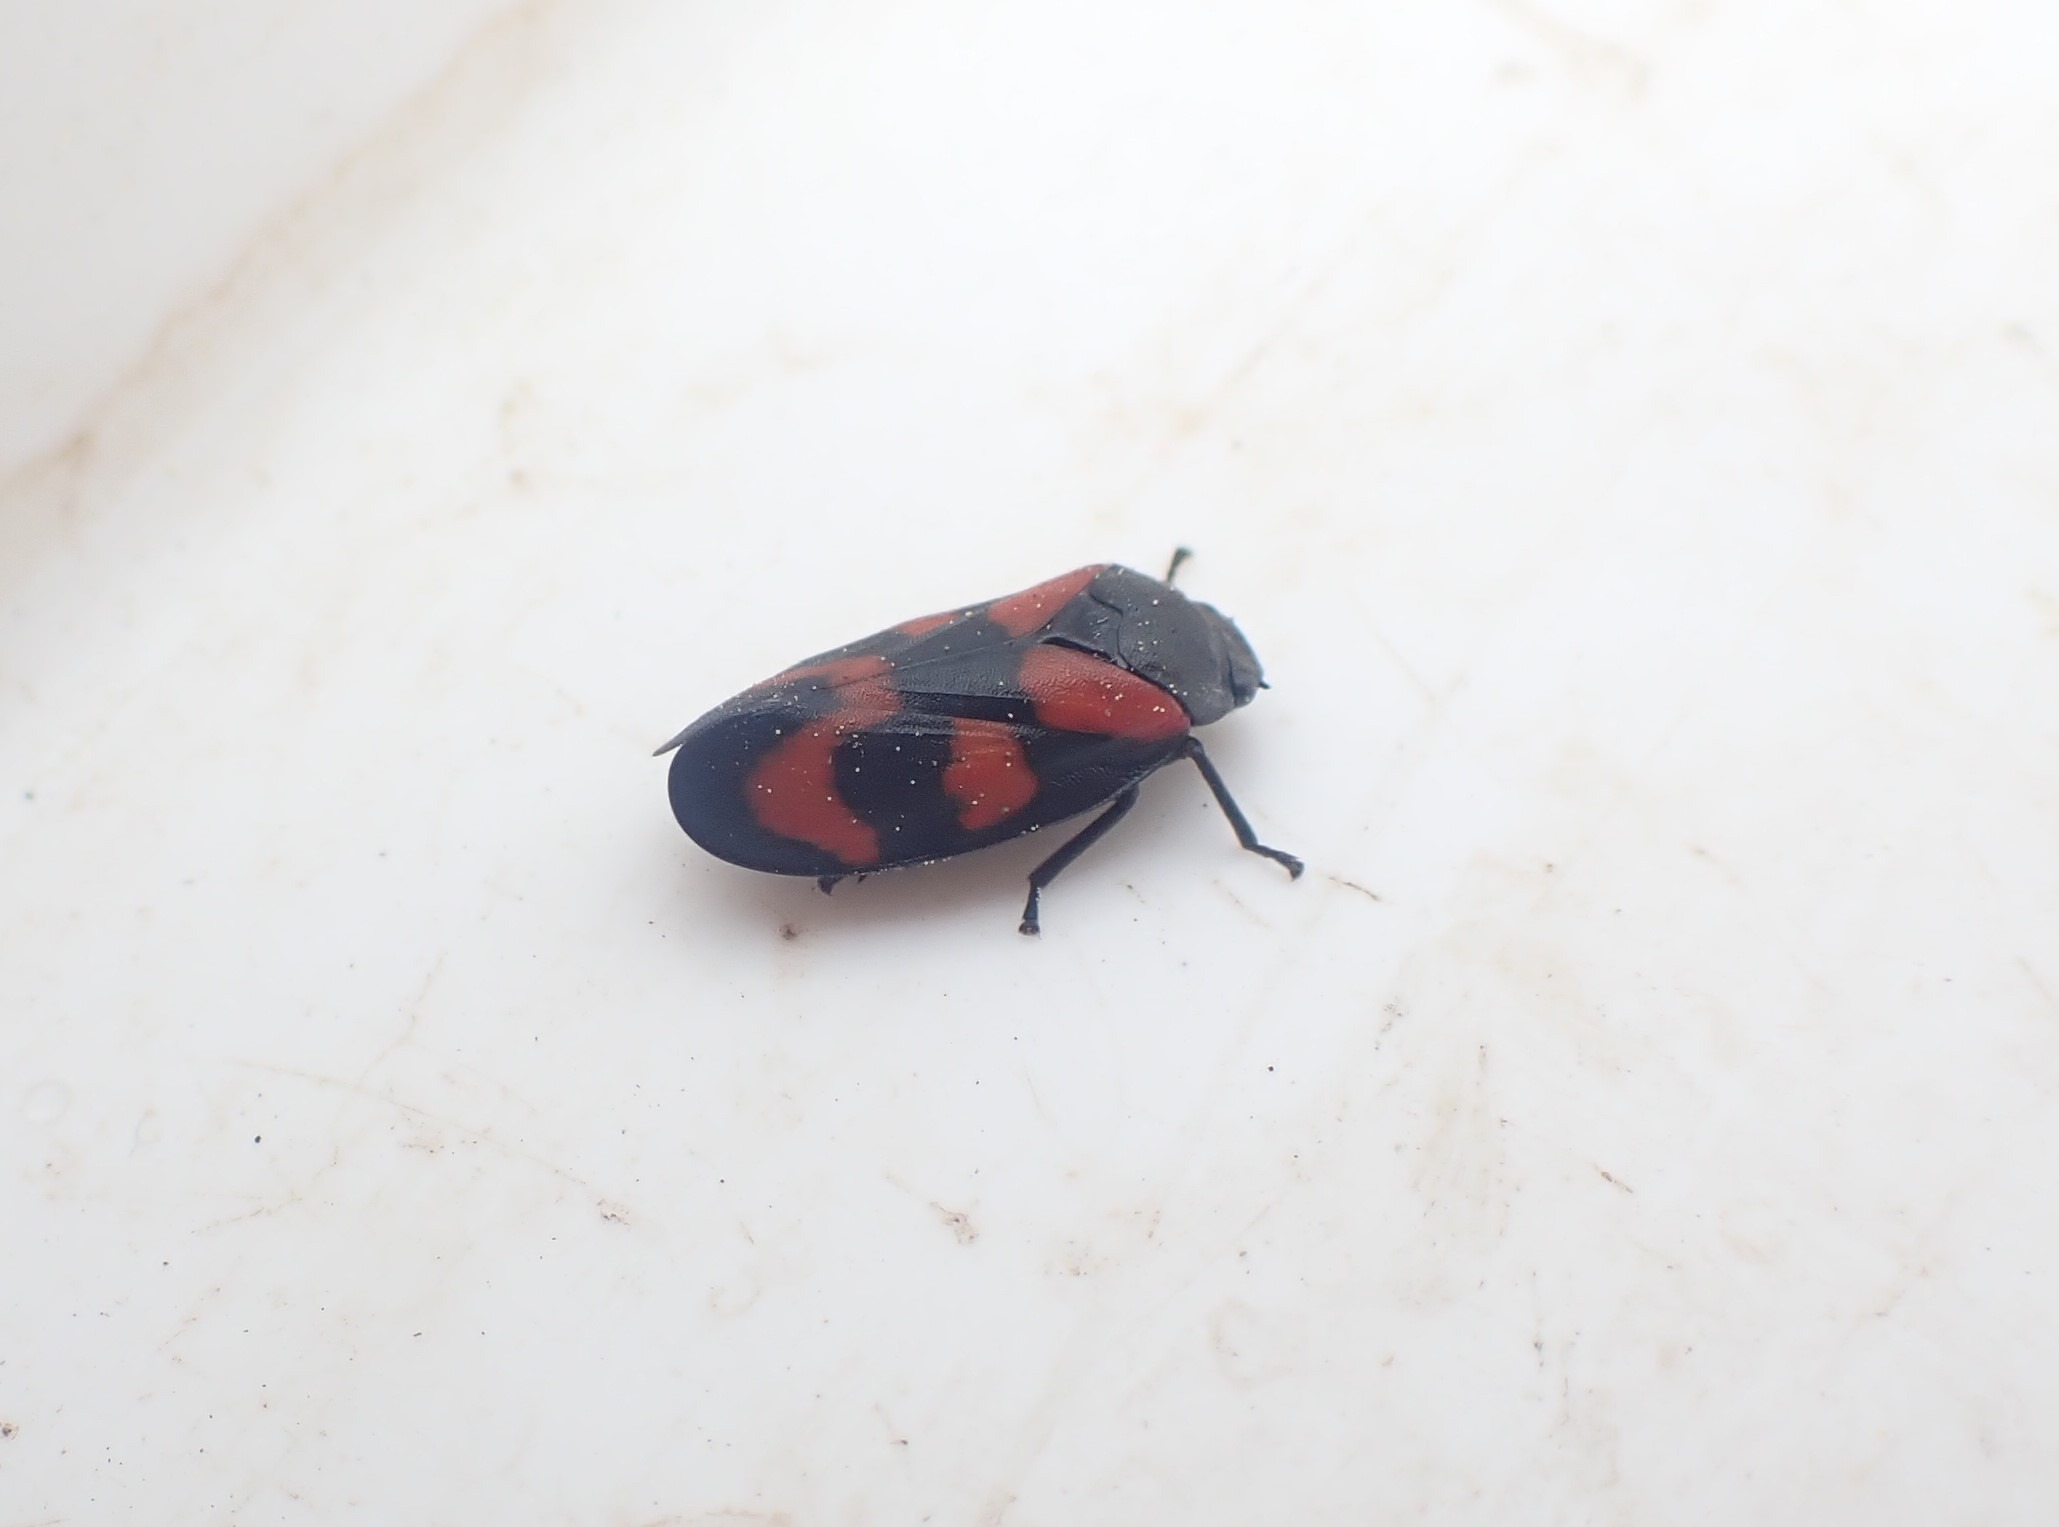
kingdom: Animalia
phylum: Arthropoda
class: Insecta
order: Hemiptera
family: Cercopidae
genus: Cercopis
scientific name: Cercopis vulnerata
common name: Blodcikade
